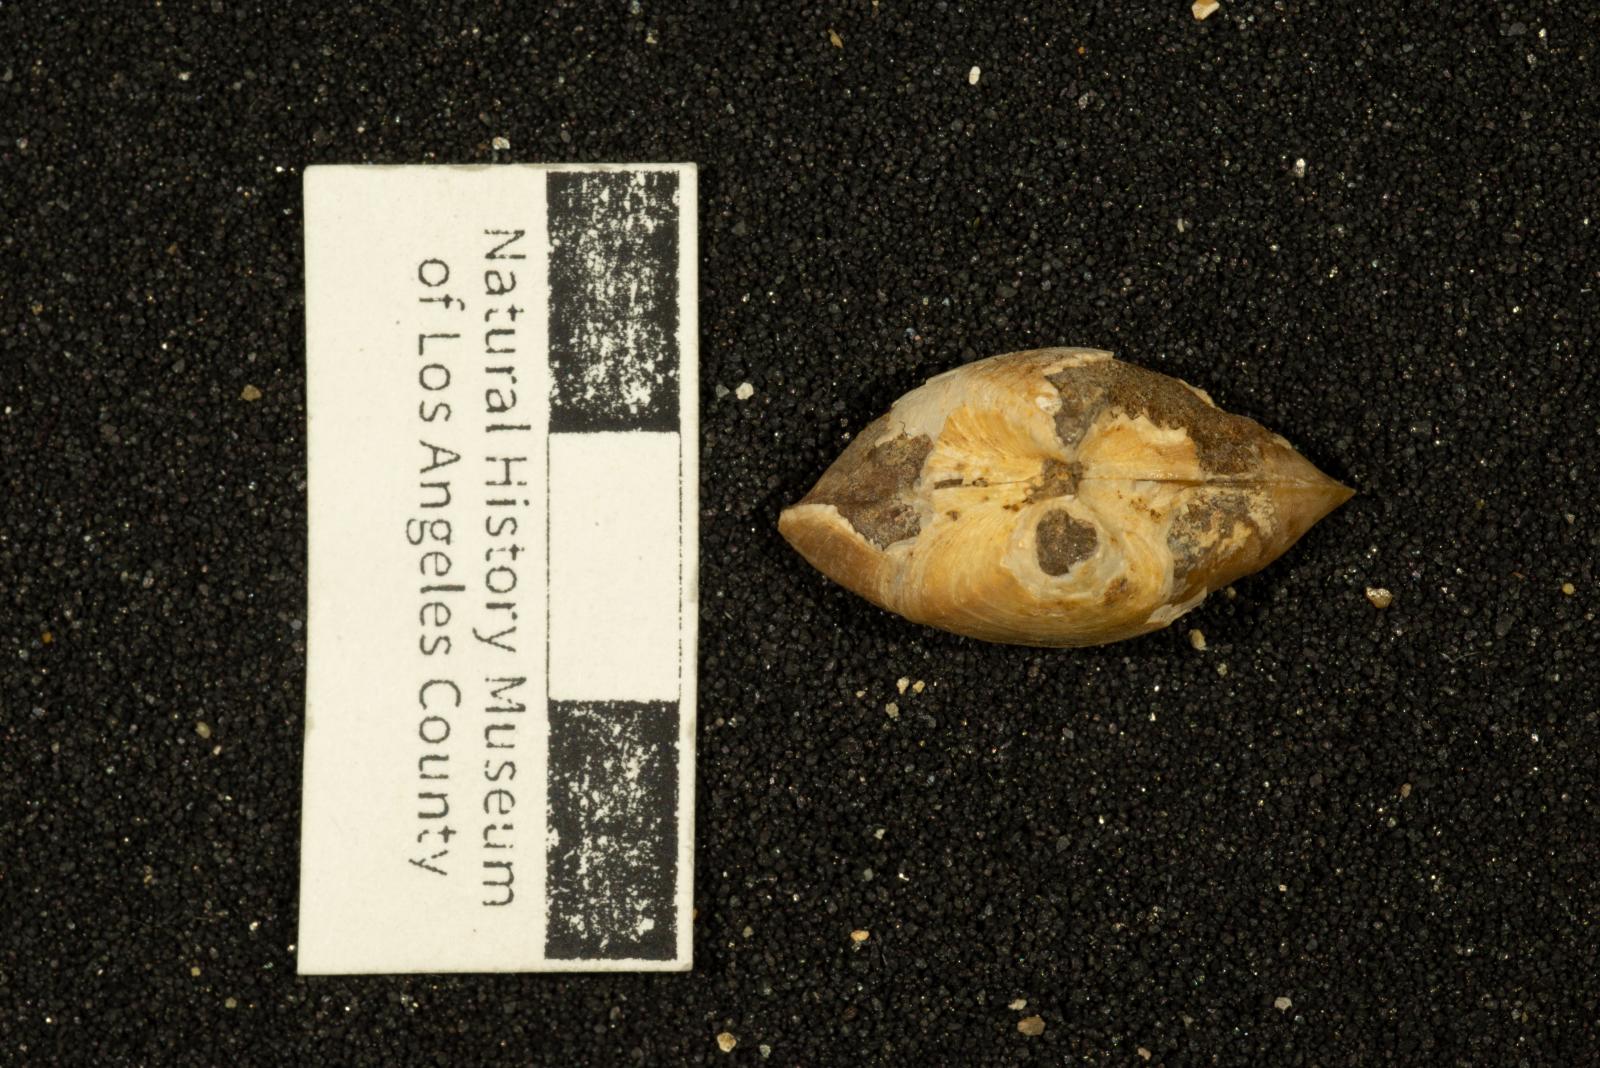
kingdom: Animalia
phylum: Mollusca
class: Bivalvia
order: Carditida
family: Crassatellidae
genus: Crassinella
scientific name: Crassinella
